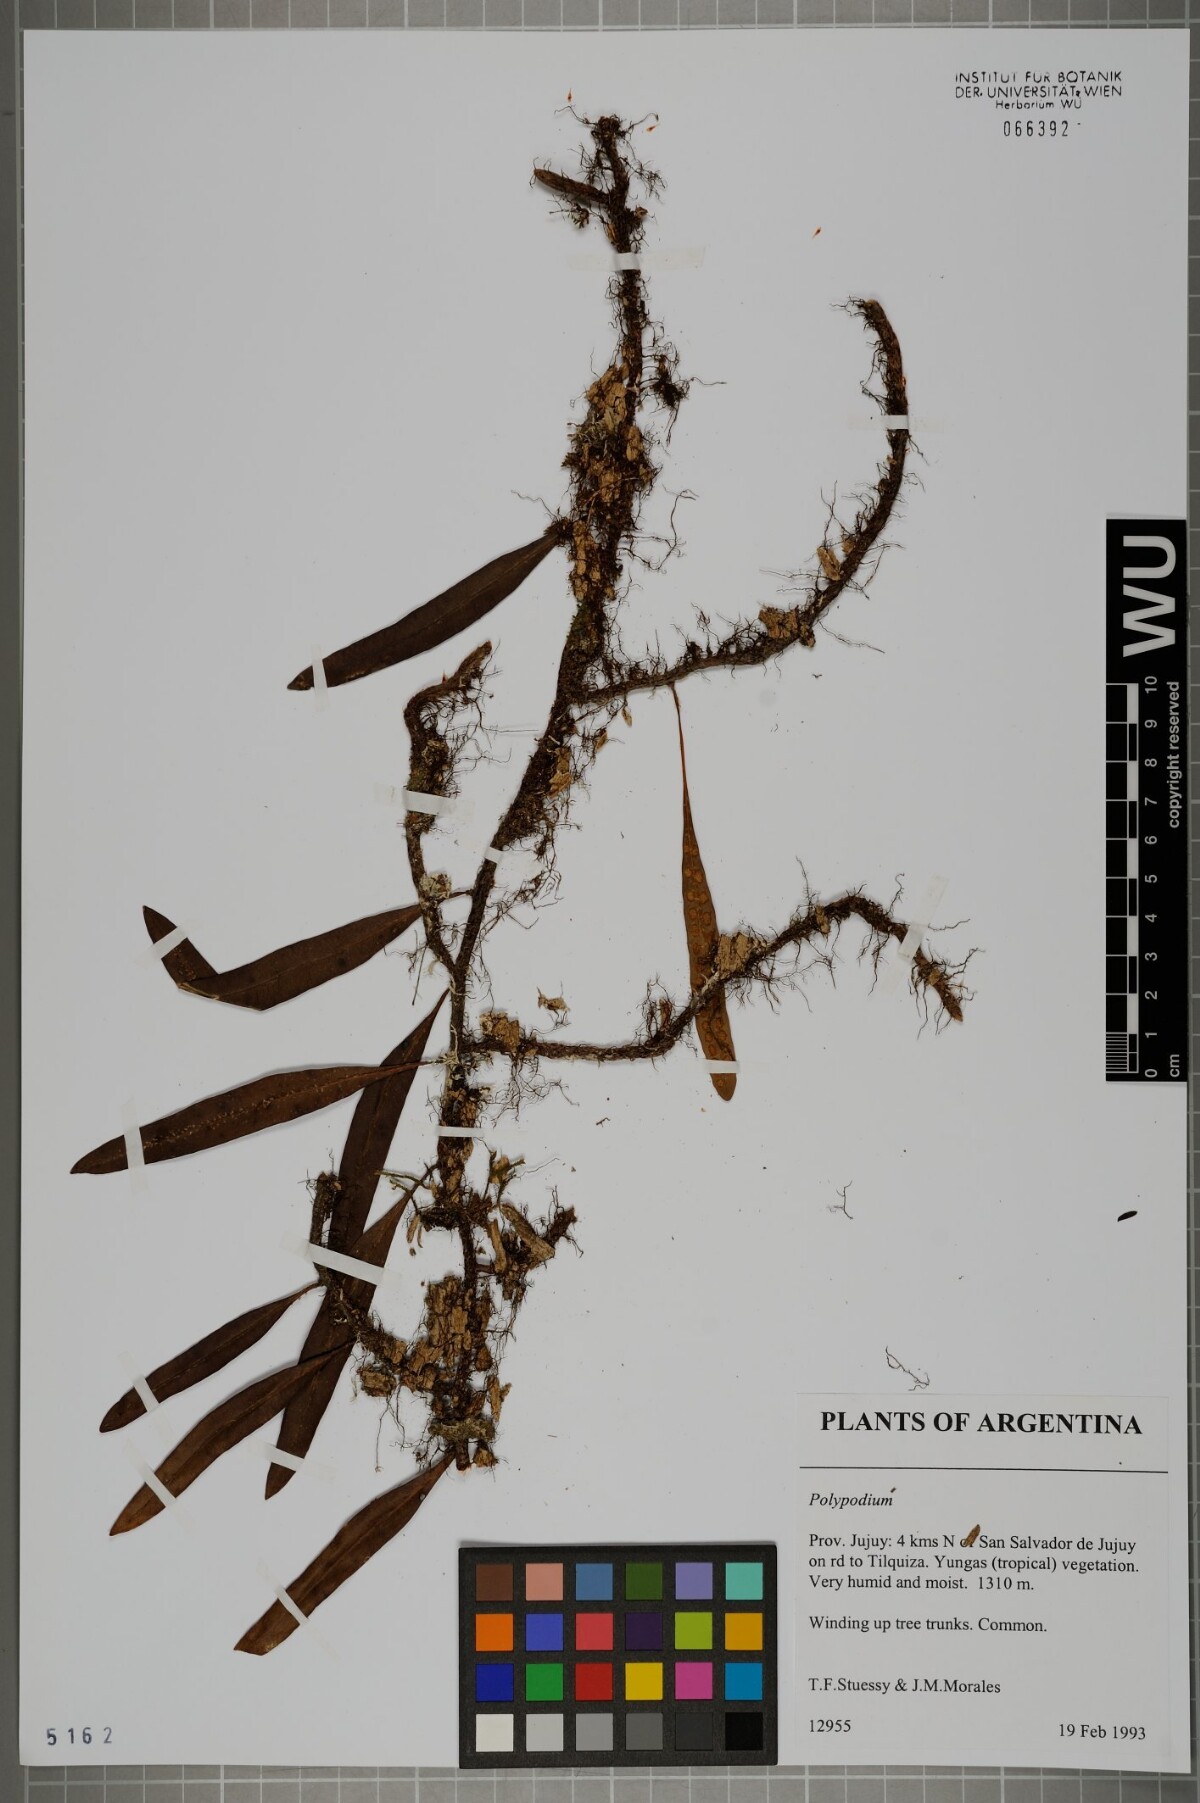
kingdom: Plantae
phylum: Tracheophyta
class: Polypodiopsida
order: Polypodiales
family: Polypodiaceae
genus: Polypodium
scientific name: Polypodium
